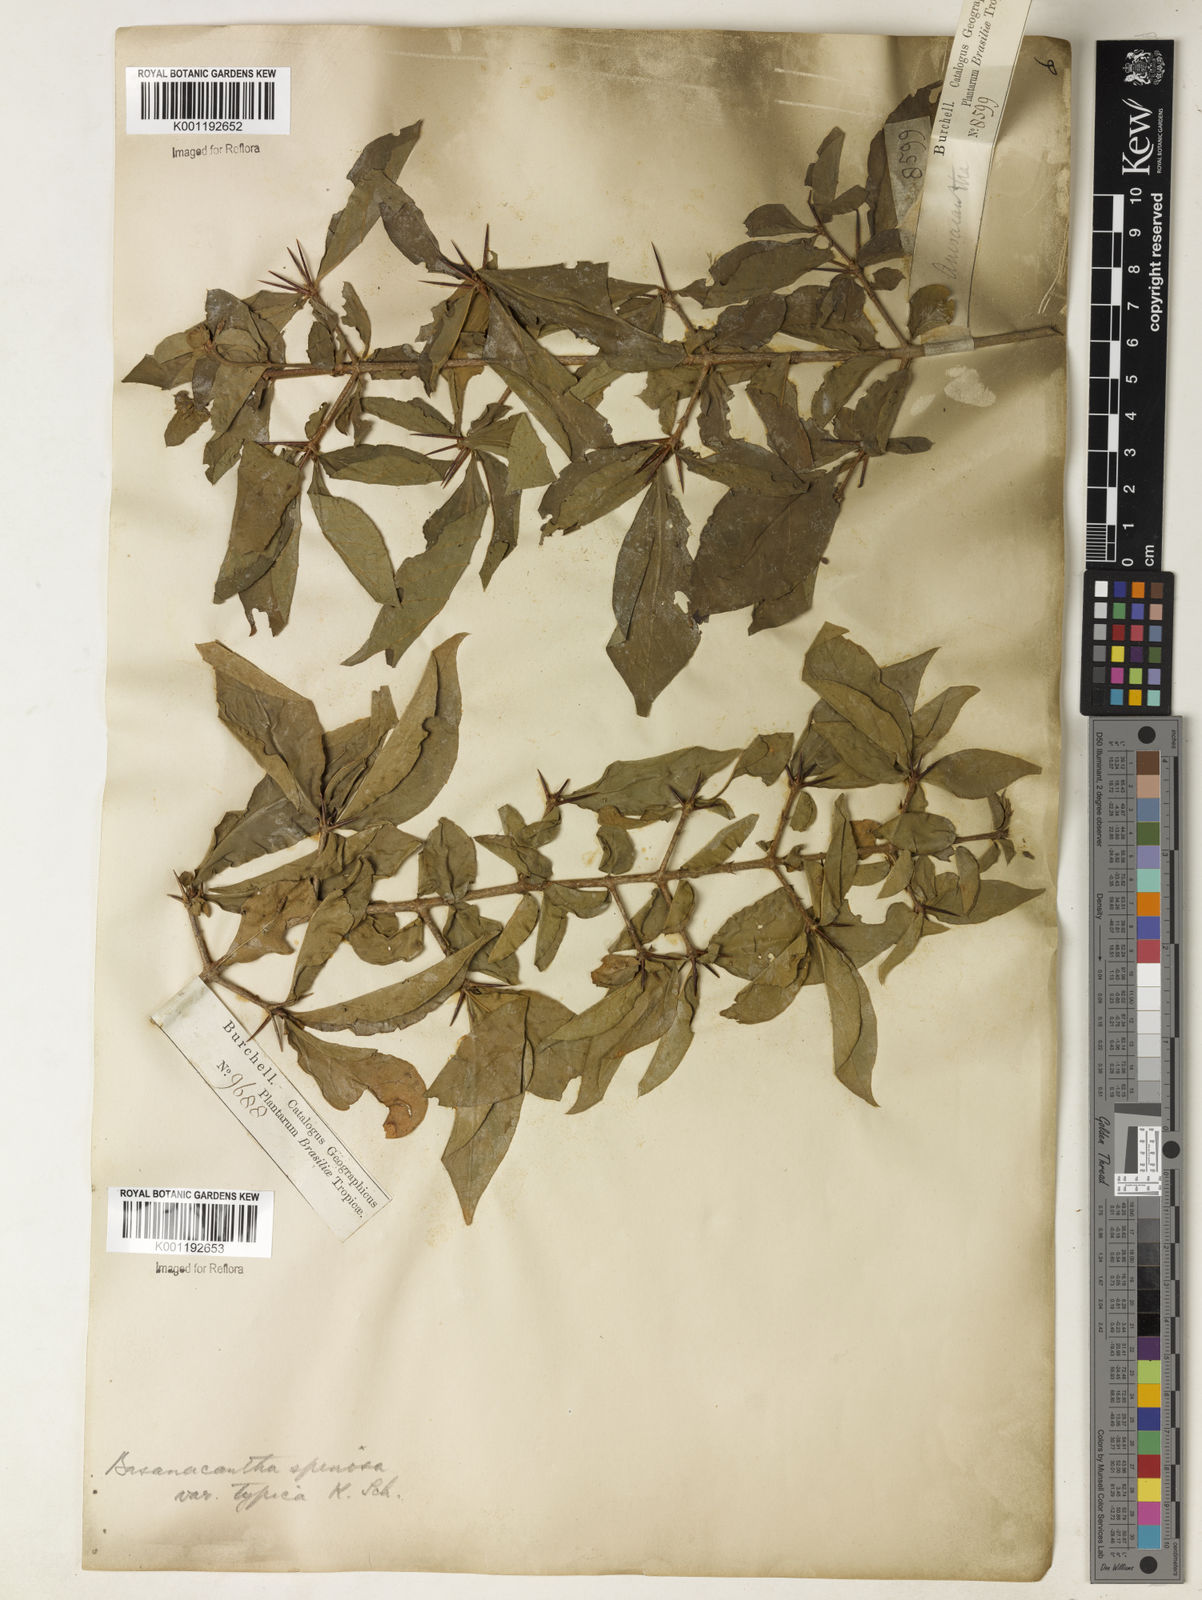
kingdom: Plantae
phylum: Tracheophyta
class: Magnoliopsida
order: Gentianales
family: Rubiaceae
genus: Randia
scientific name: Randia armata
